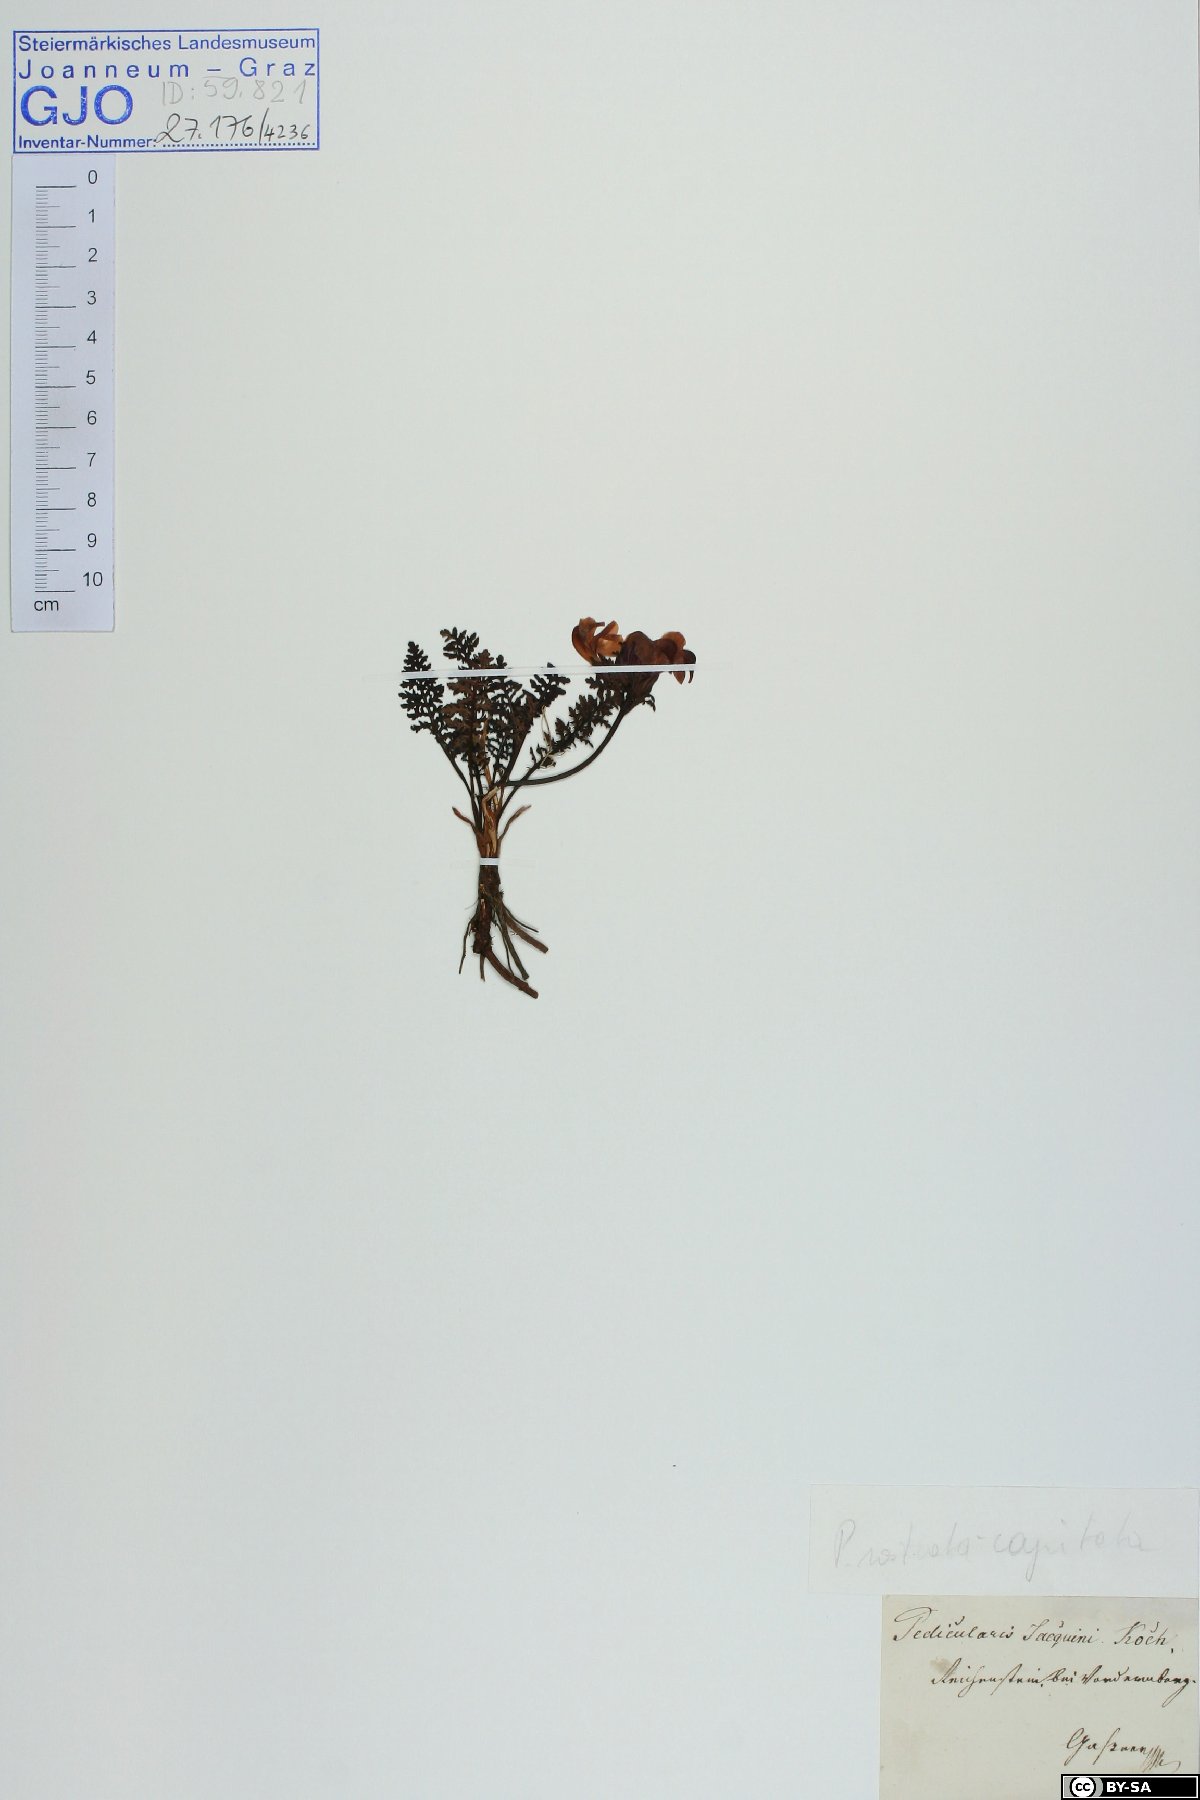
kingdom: Plantae
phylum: Tracheophyta
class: Magnoliopsida
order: Lamiales
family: Orobanchaceae
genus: Pedicularis
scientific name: Pedicularis rostratocapitata
